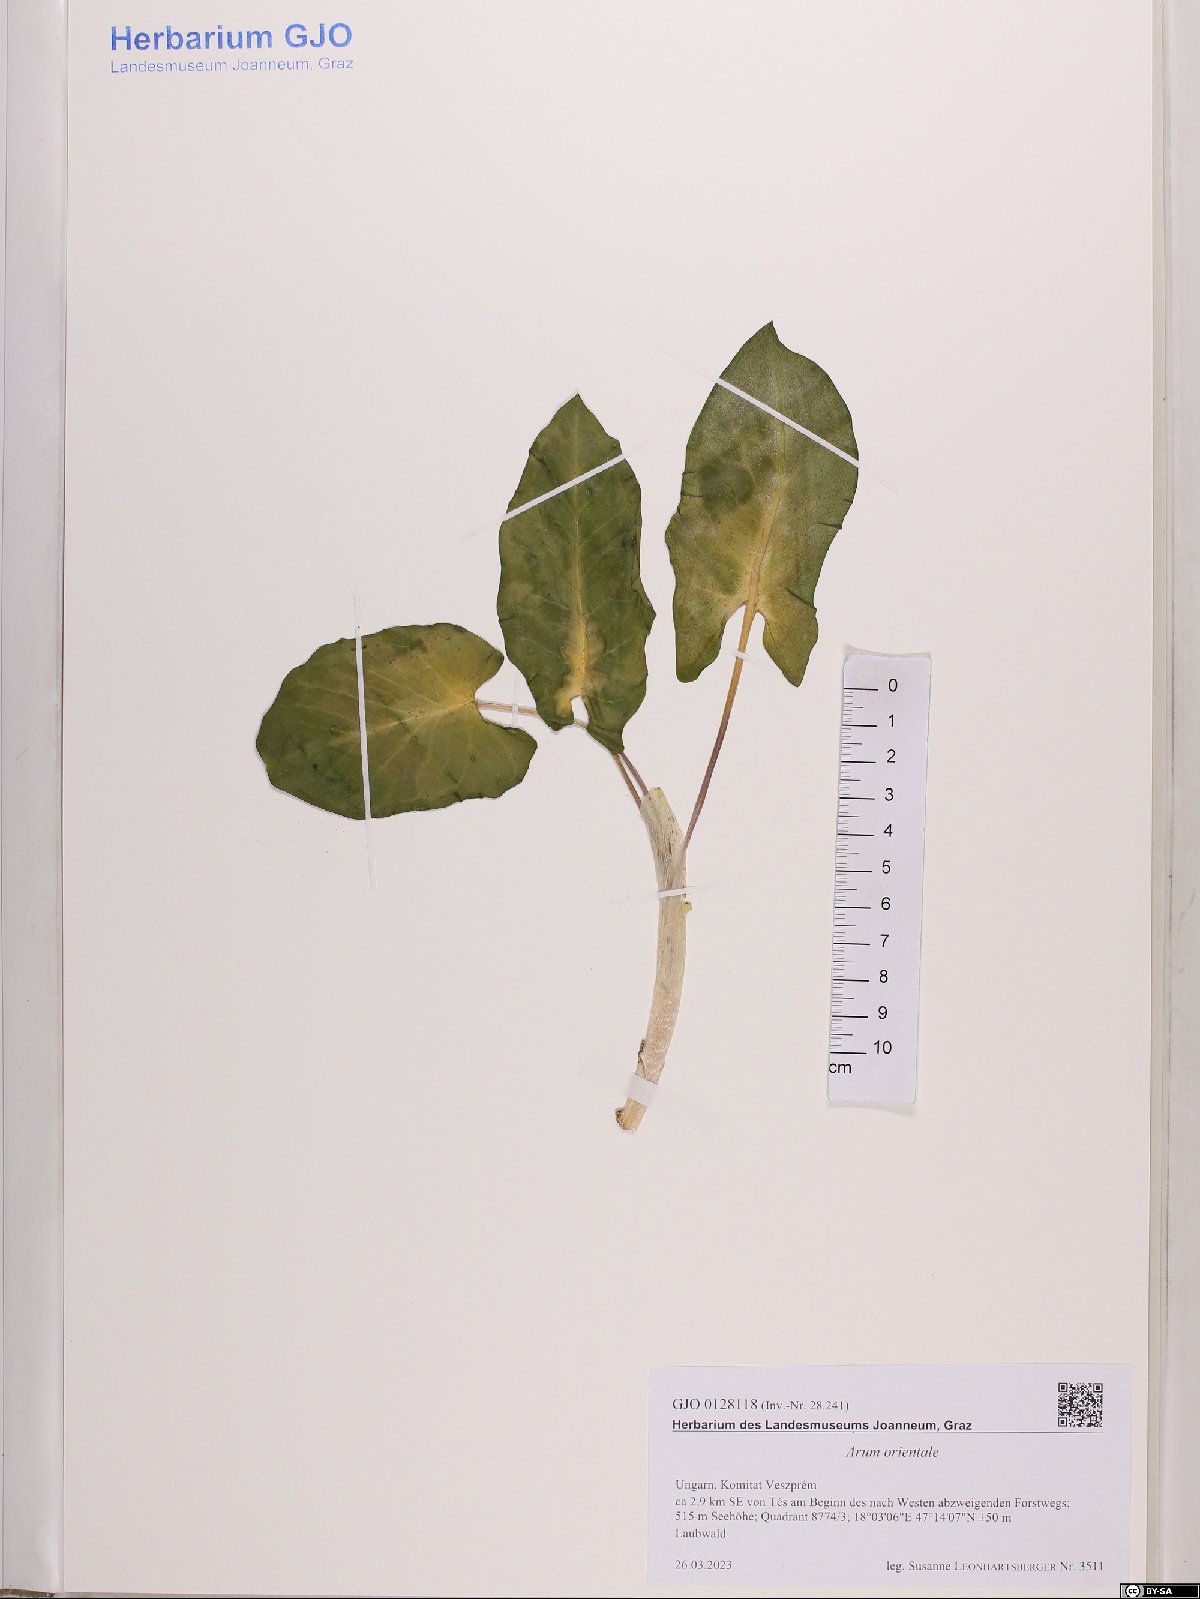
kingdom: Plantae
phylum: Tracheophyta
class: Liliopsida
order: Alismatales
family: Araceae
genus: Arum
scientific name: Arum orientale
